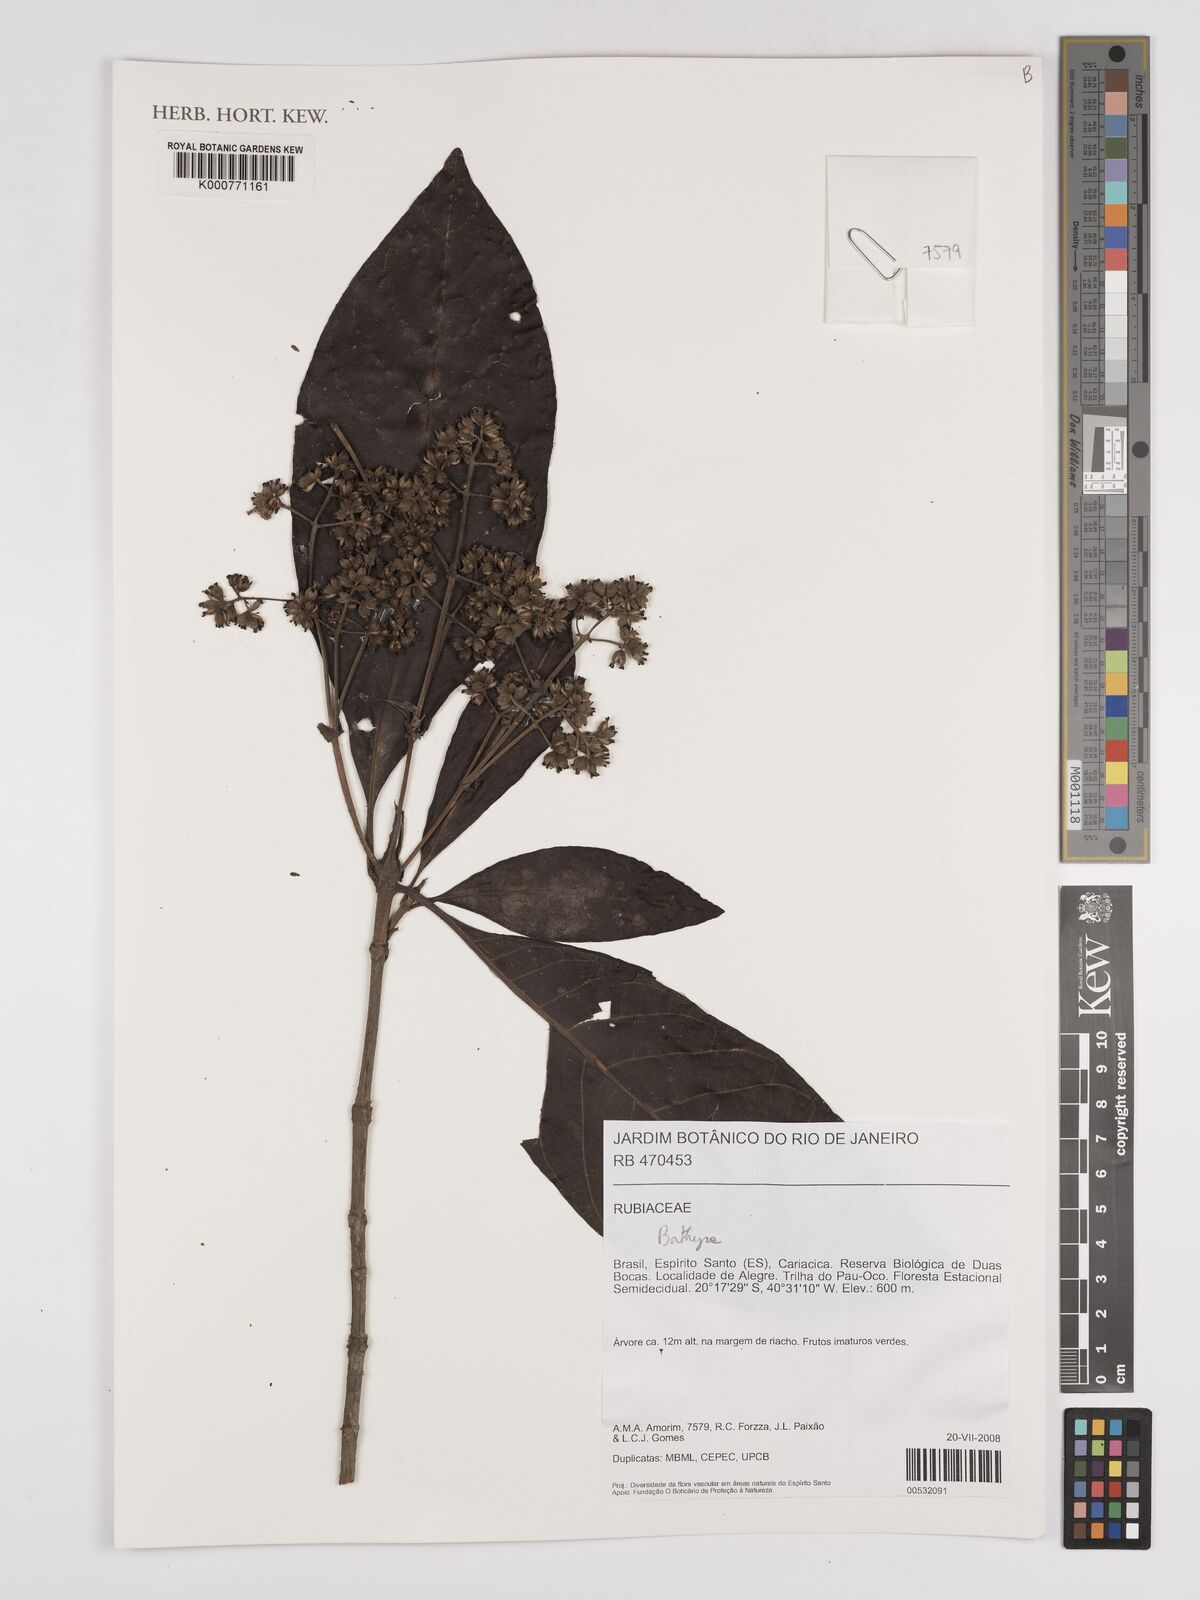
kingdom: Plantae
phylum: Tracheophyta
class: Magnoliopsida
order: Gentianales
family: Rubiaceae
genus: Bathysa
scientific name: Bathysa
